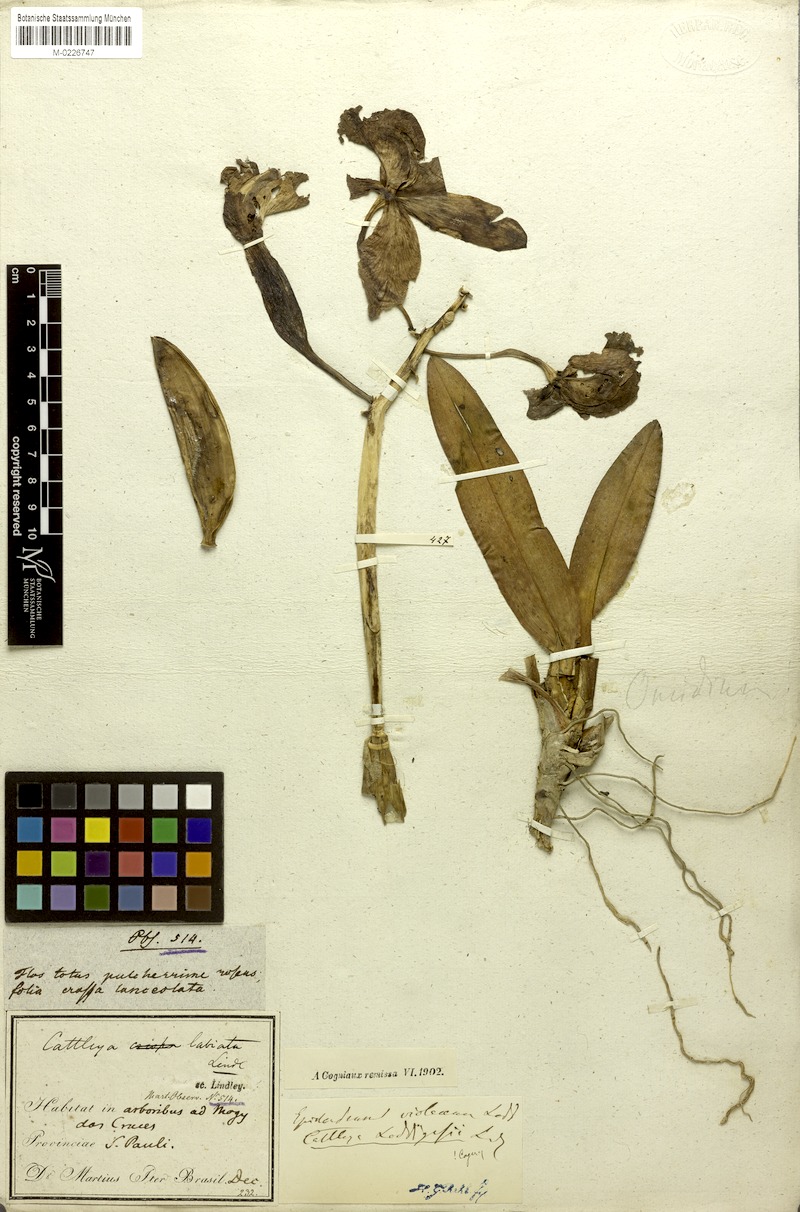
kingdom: Plantae
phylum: Tracheophyta
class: Liliopsida
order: Asparagales
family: Orchidaceae
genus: Cattleya
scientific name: Cattleya loddigesii
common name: Loddiges's cattleya
